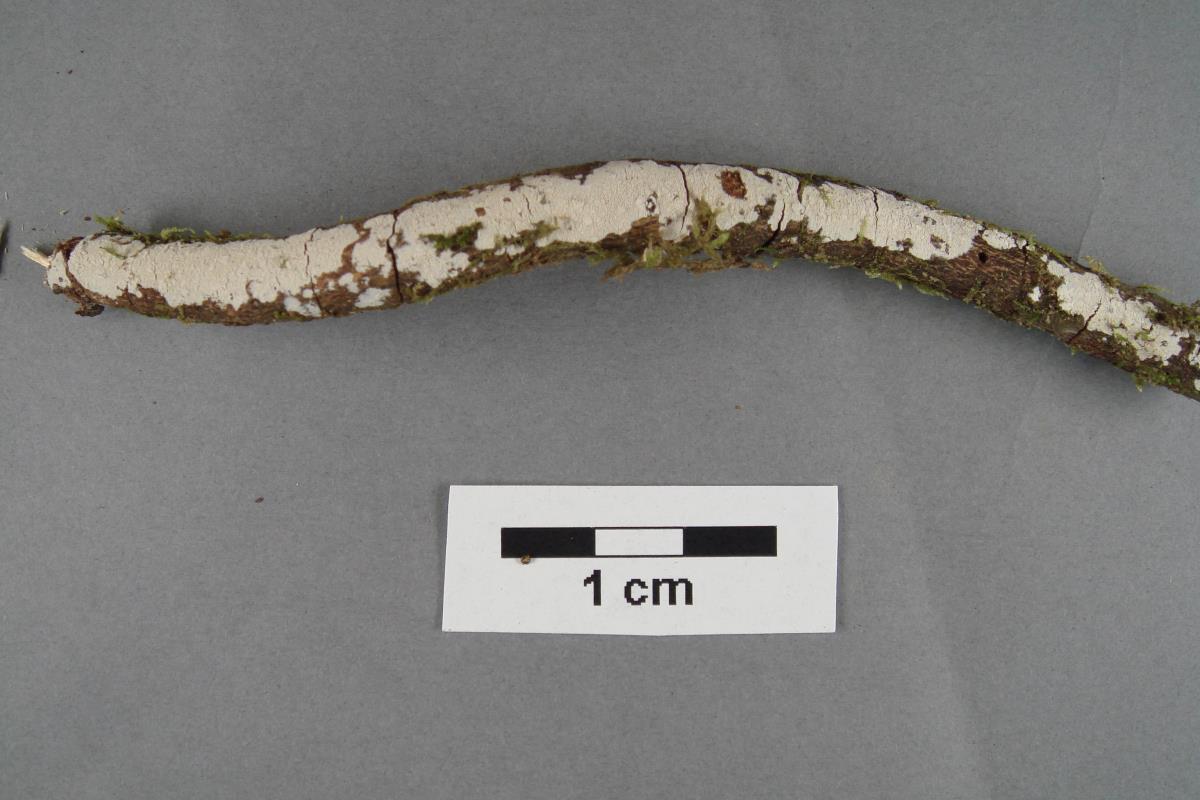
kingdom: Fungi
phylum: Basidiomycota
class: Agaricomycetes
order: Corticiales
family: Corticiaceae
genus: Lyomyces
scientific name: Lyomyces crustosus
